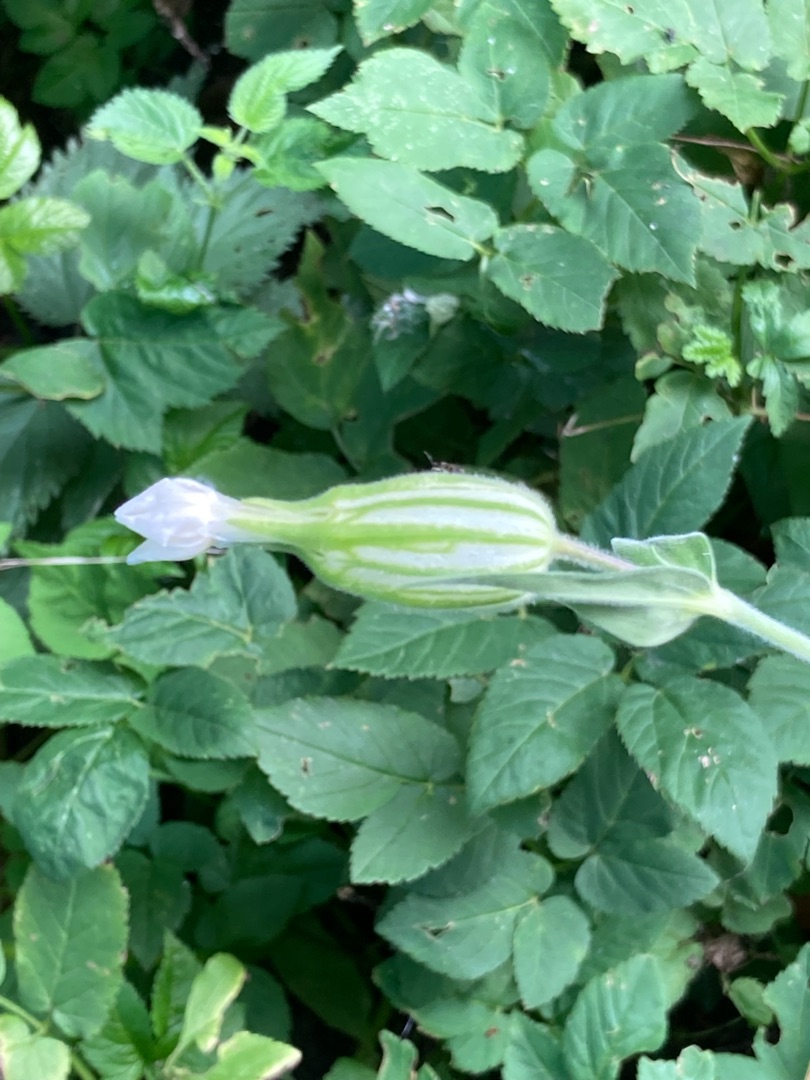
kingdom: Plantae
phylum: Tracheophyta
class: Magnoliopsida
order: Caryophyllales
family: Caryophyllaceae
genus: Silene
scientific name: Silene latifolia
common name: Aftenpragtstjerne
